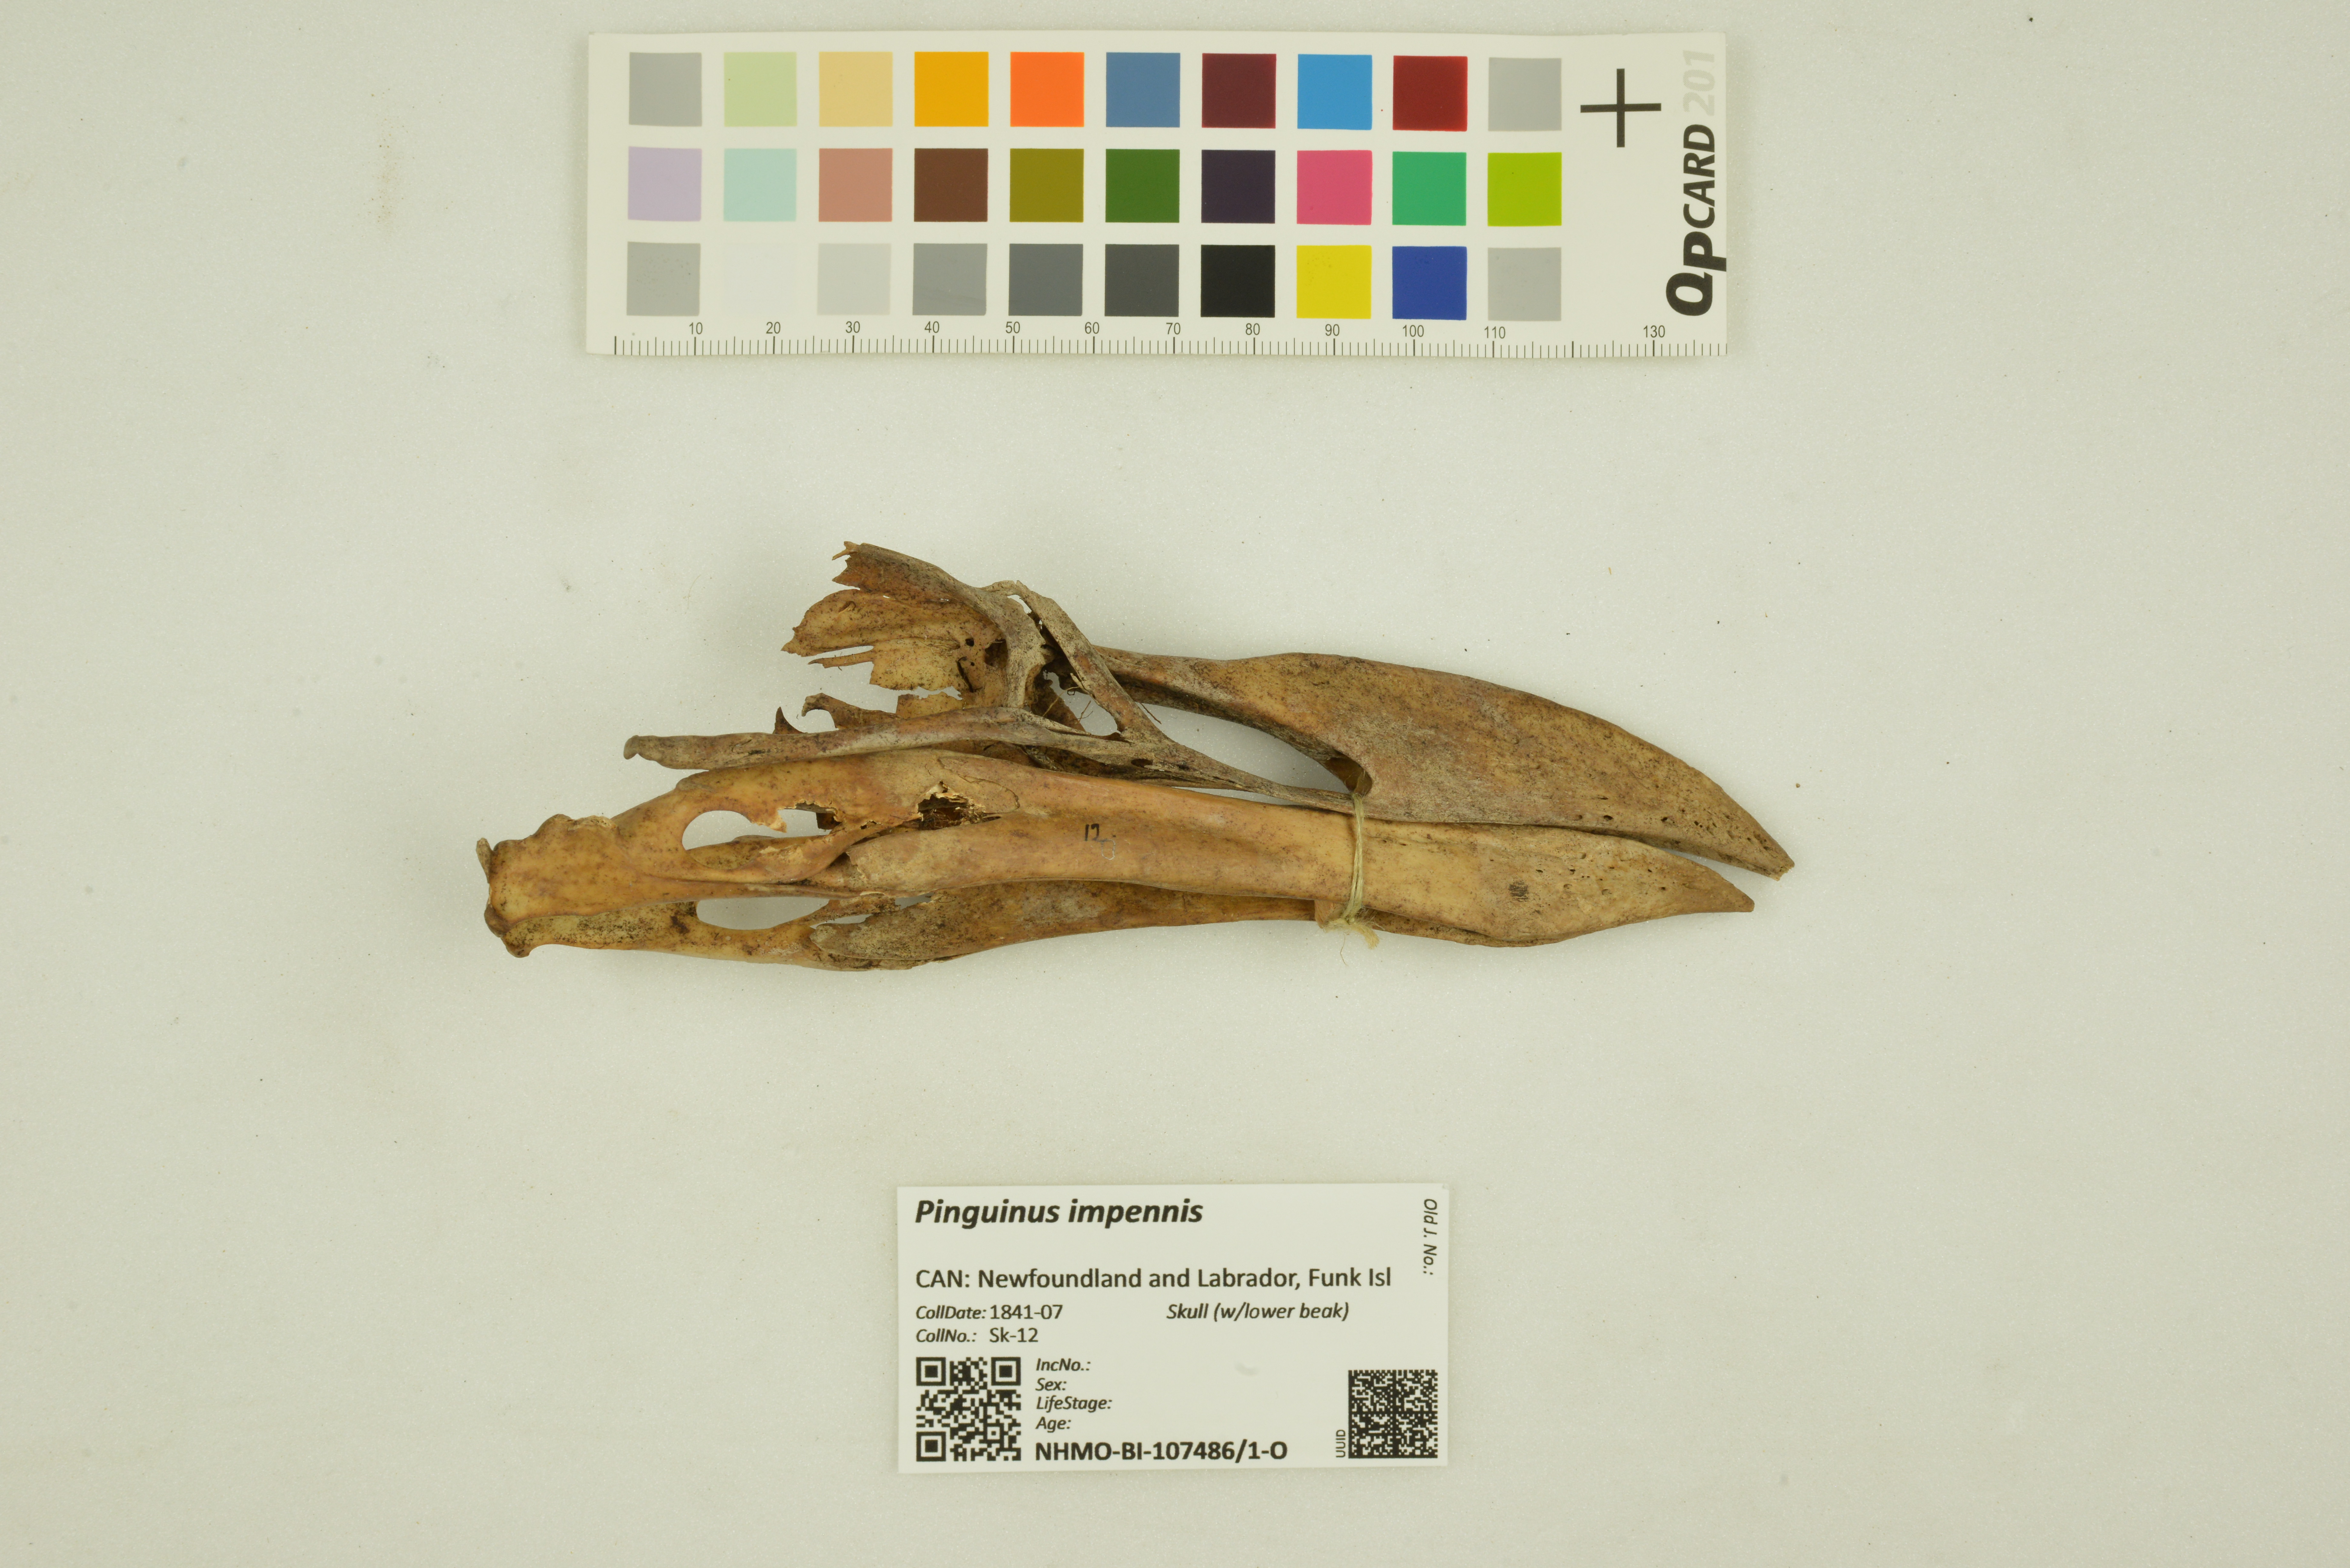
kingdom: Animalia
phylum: Chordata
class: Aves
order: Charadriiformes
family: Alcidae
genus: Pinguinus
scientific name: Pinguinus impennis
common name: Great auk
